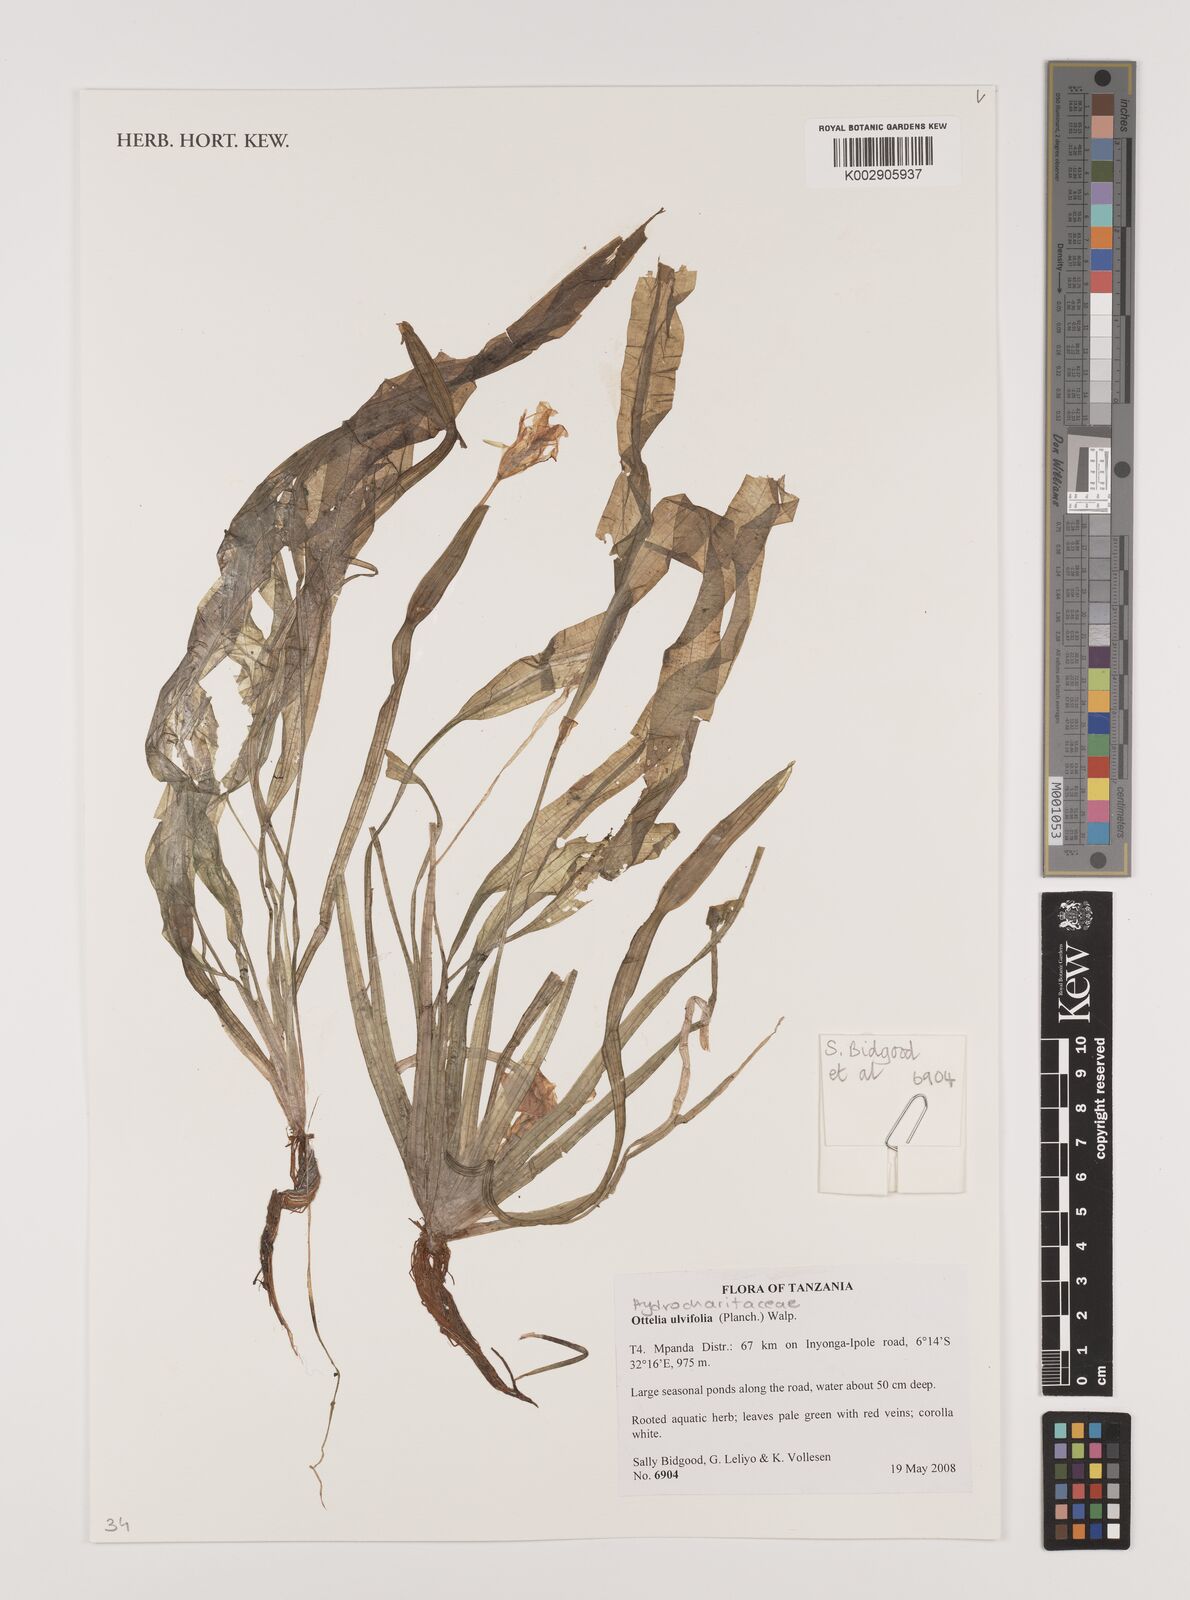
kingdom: Plantae
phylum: Tracheophyta
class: Liliopsida
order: Alismatales
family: Hydrocharitaceae
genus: Ottelia
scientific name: Ottelia ulvifolia
